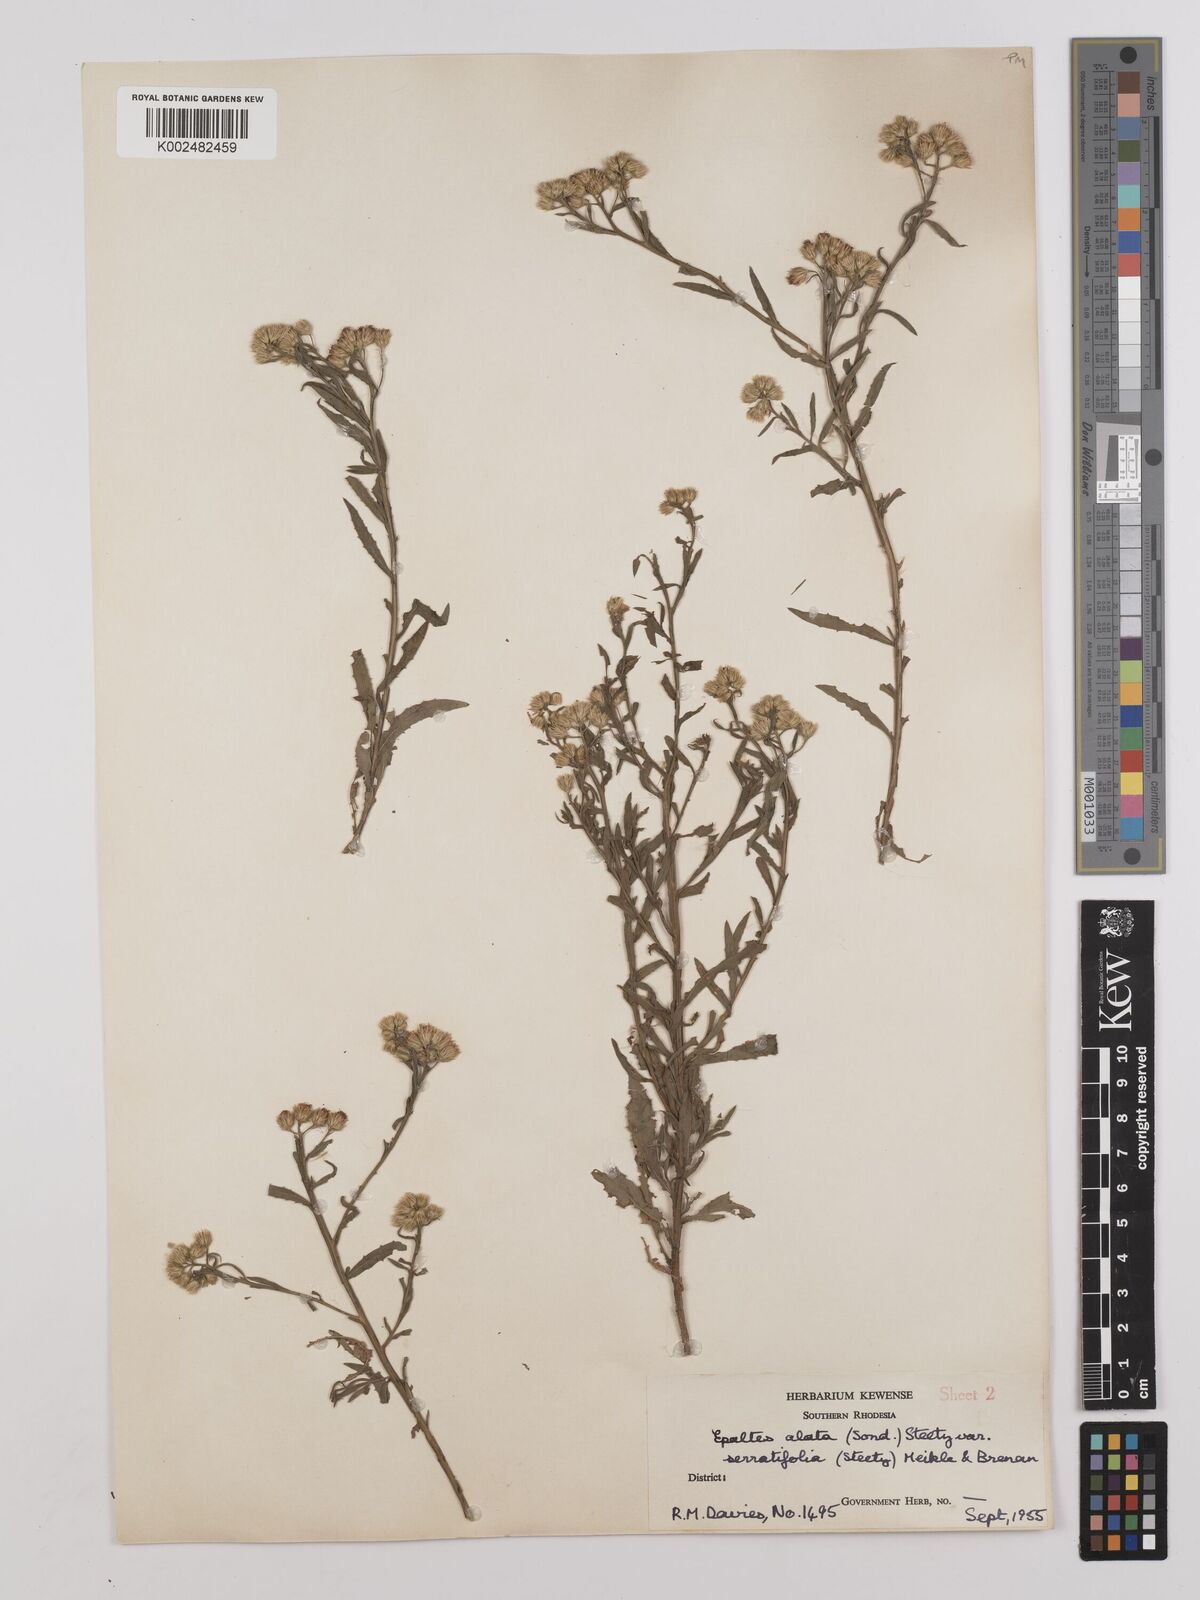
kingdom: Plantae
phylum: Tracheophyta
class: Magnoliopsida
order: Asterales
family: Asteraceae
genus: Litogyne
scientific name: Litogyne gariepina
